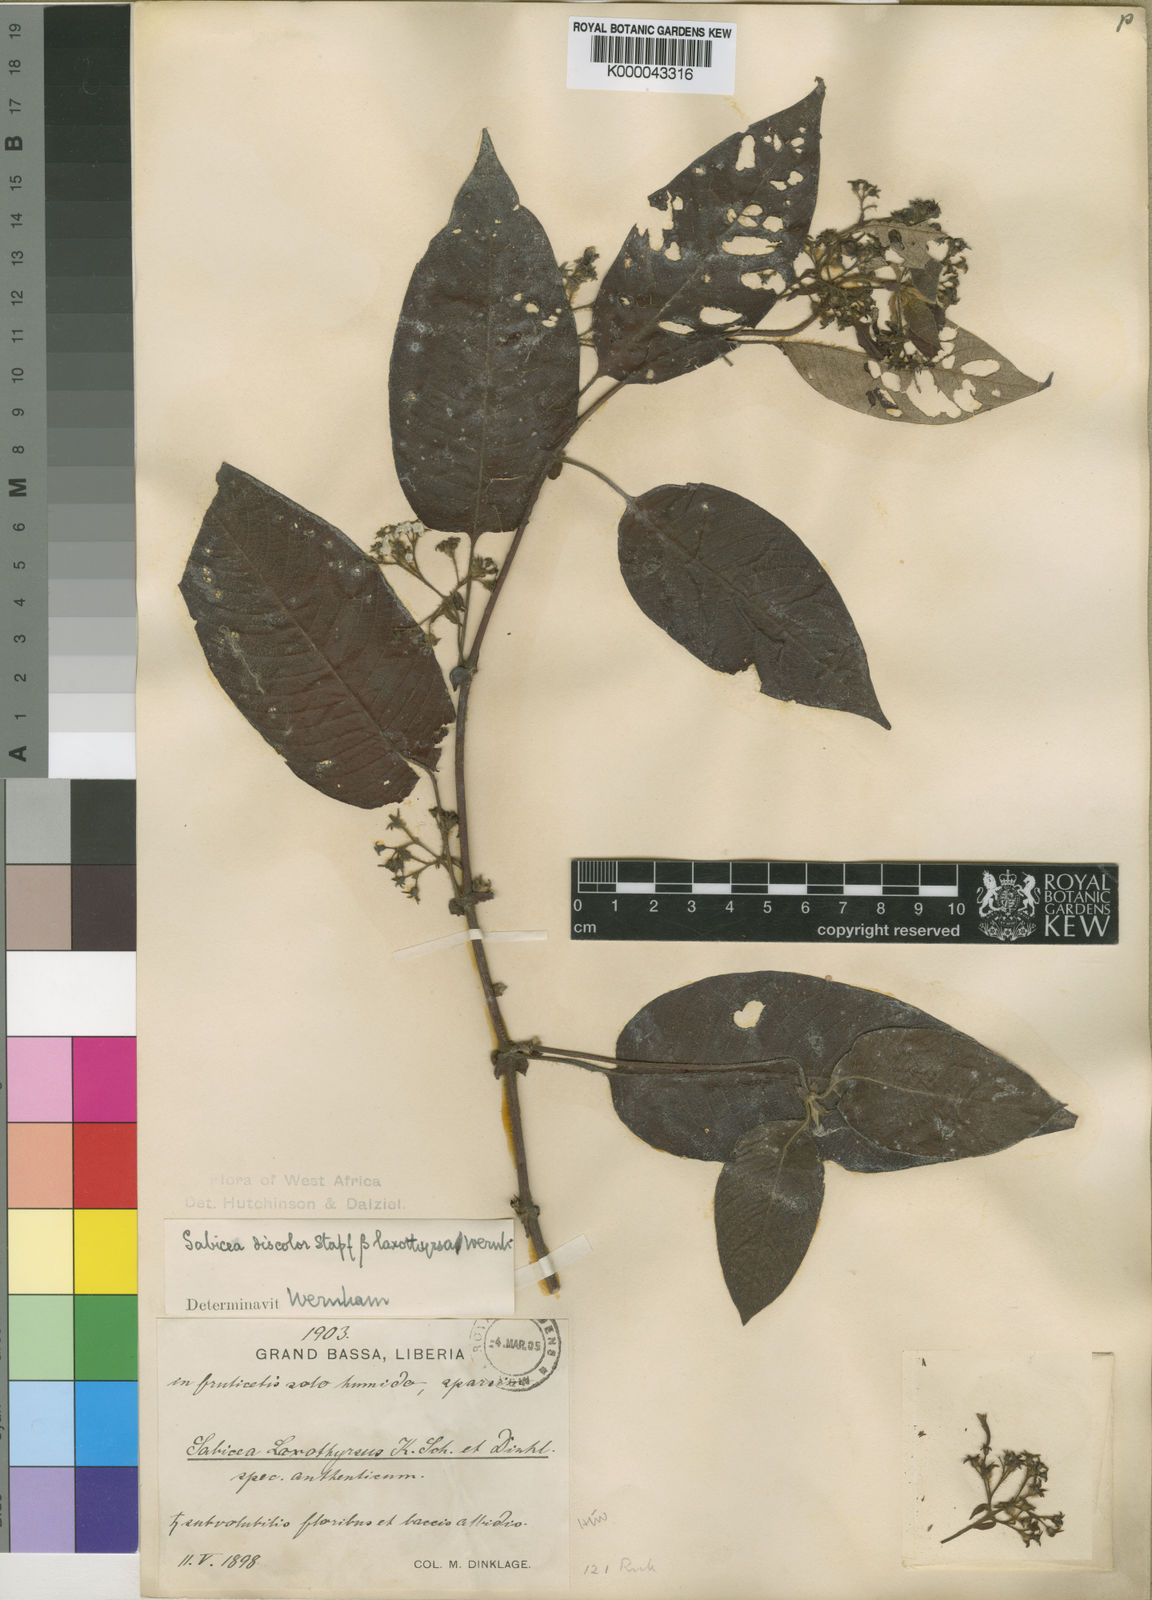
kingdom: Plantae
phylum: Tracheophyta
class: Magnoliopsida
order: Gentianales
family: Rubiaceae
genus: Sabicea
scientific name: Sabicea discolor
